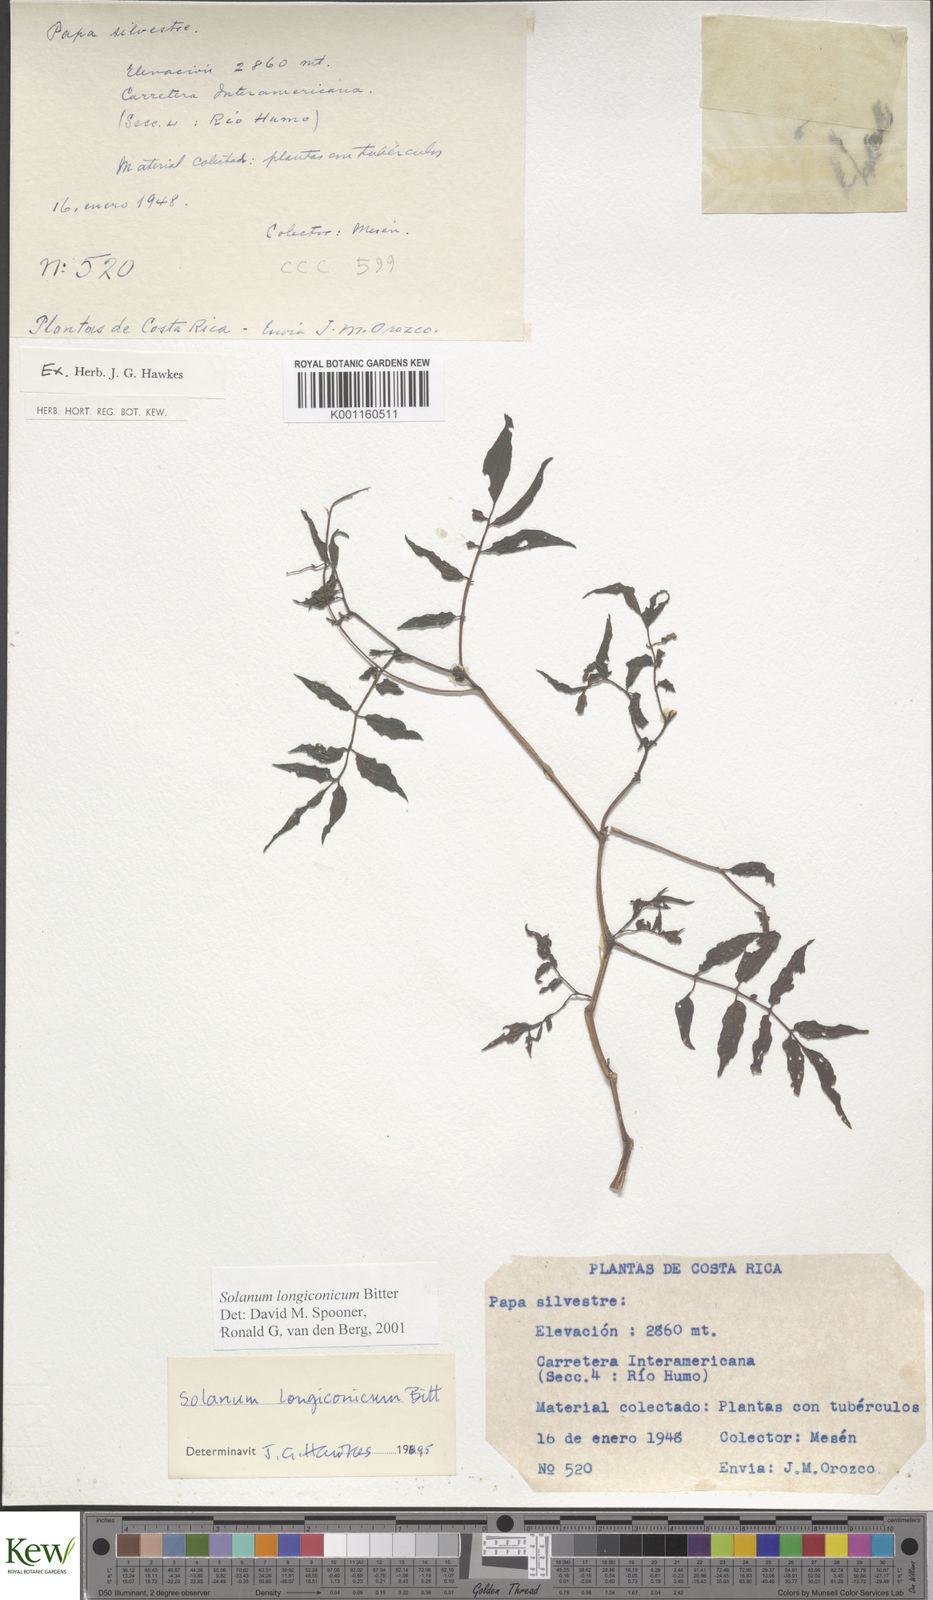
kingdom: Plantae
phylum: Tracheophyta
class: Magnoliopsida
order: Solanales
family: Solanaceae
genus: Solanum
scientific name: Solanum longiconicum
